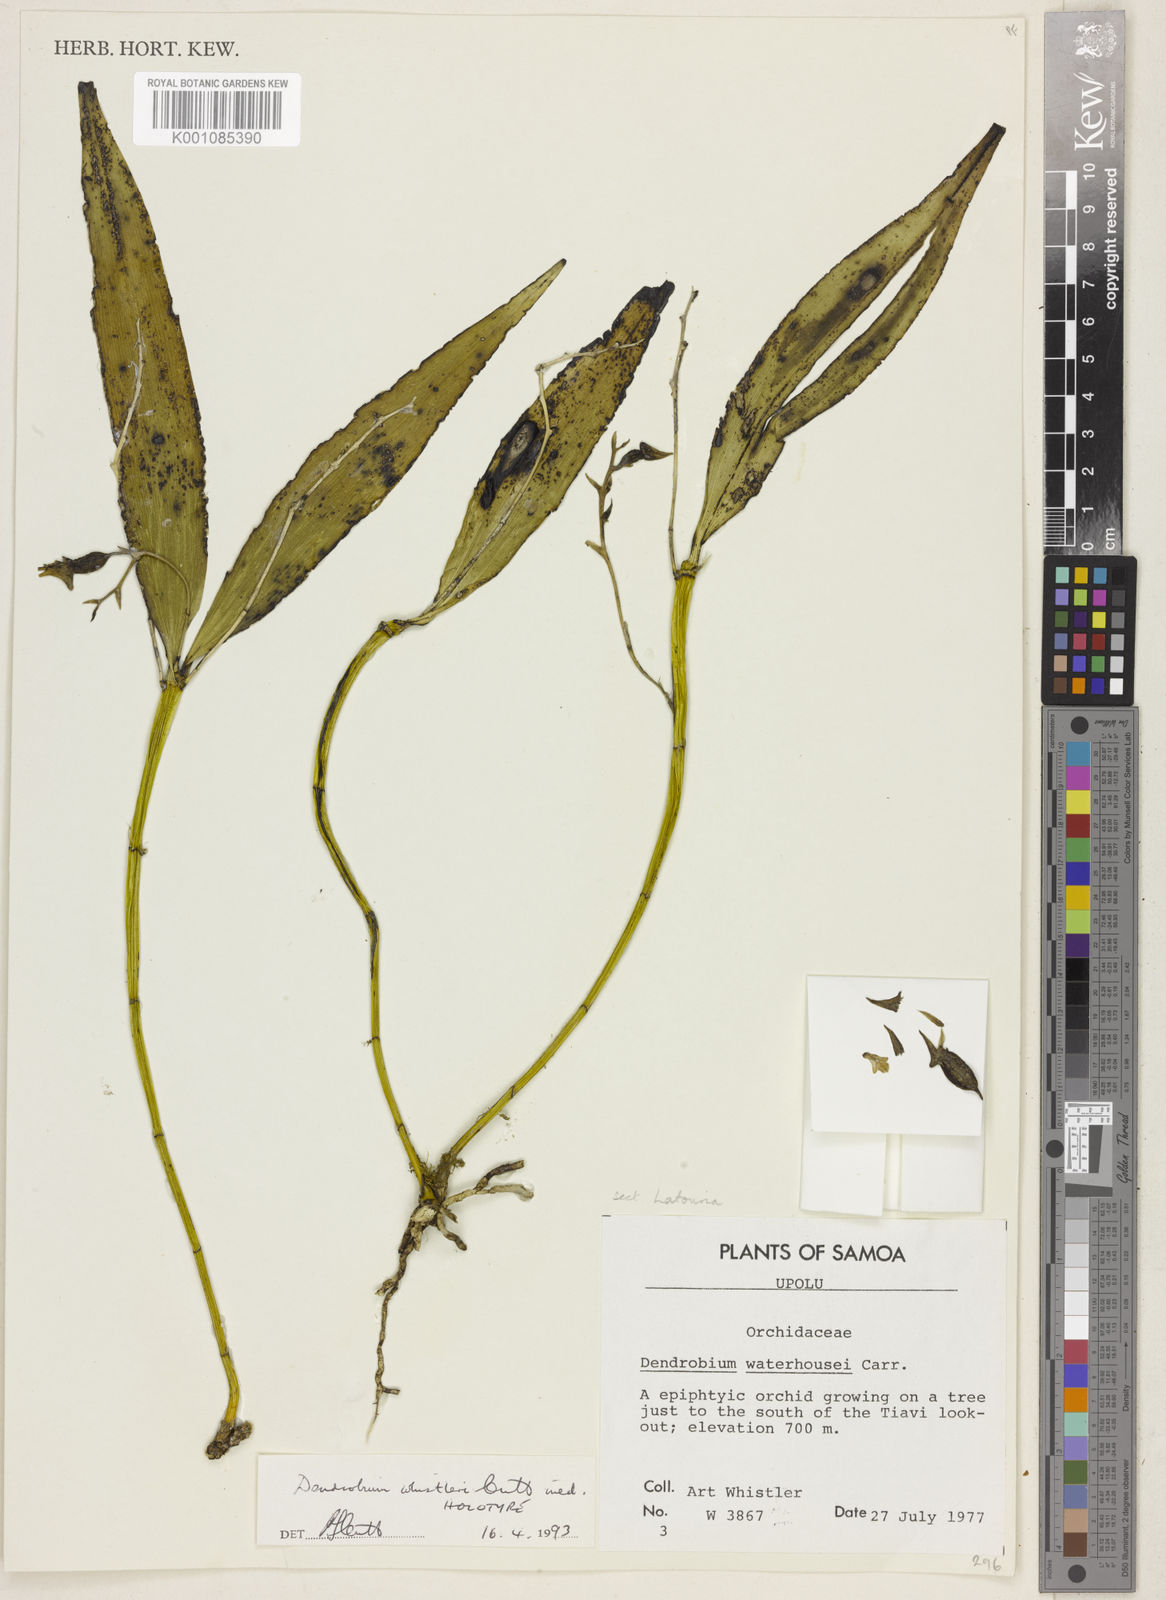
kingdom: Plantae
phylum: Tracheophyta
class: Liliopsida
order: Asparagales
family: Orchidaceae
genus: Dendrobium
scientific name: Dendrobium whistleri
